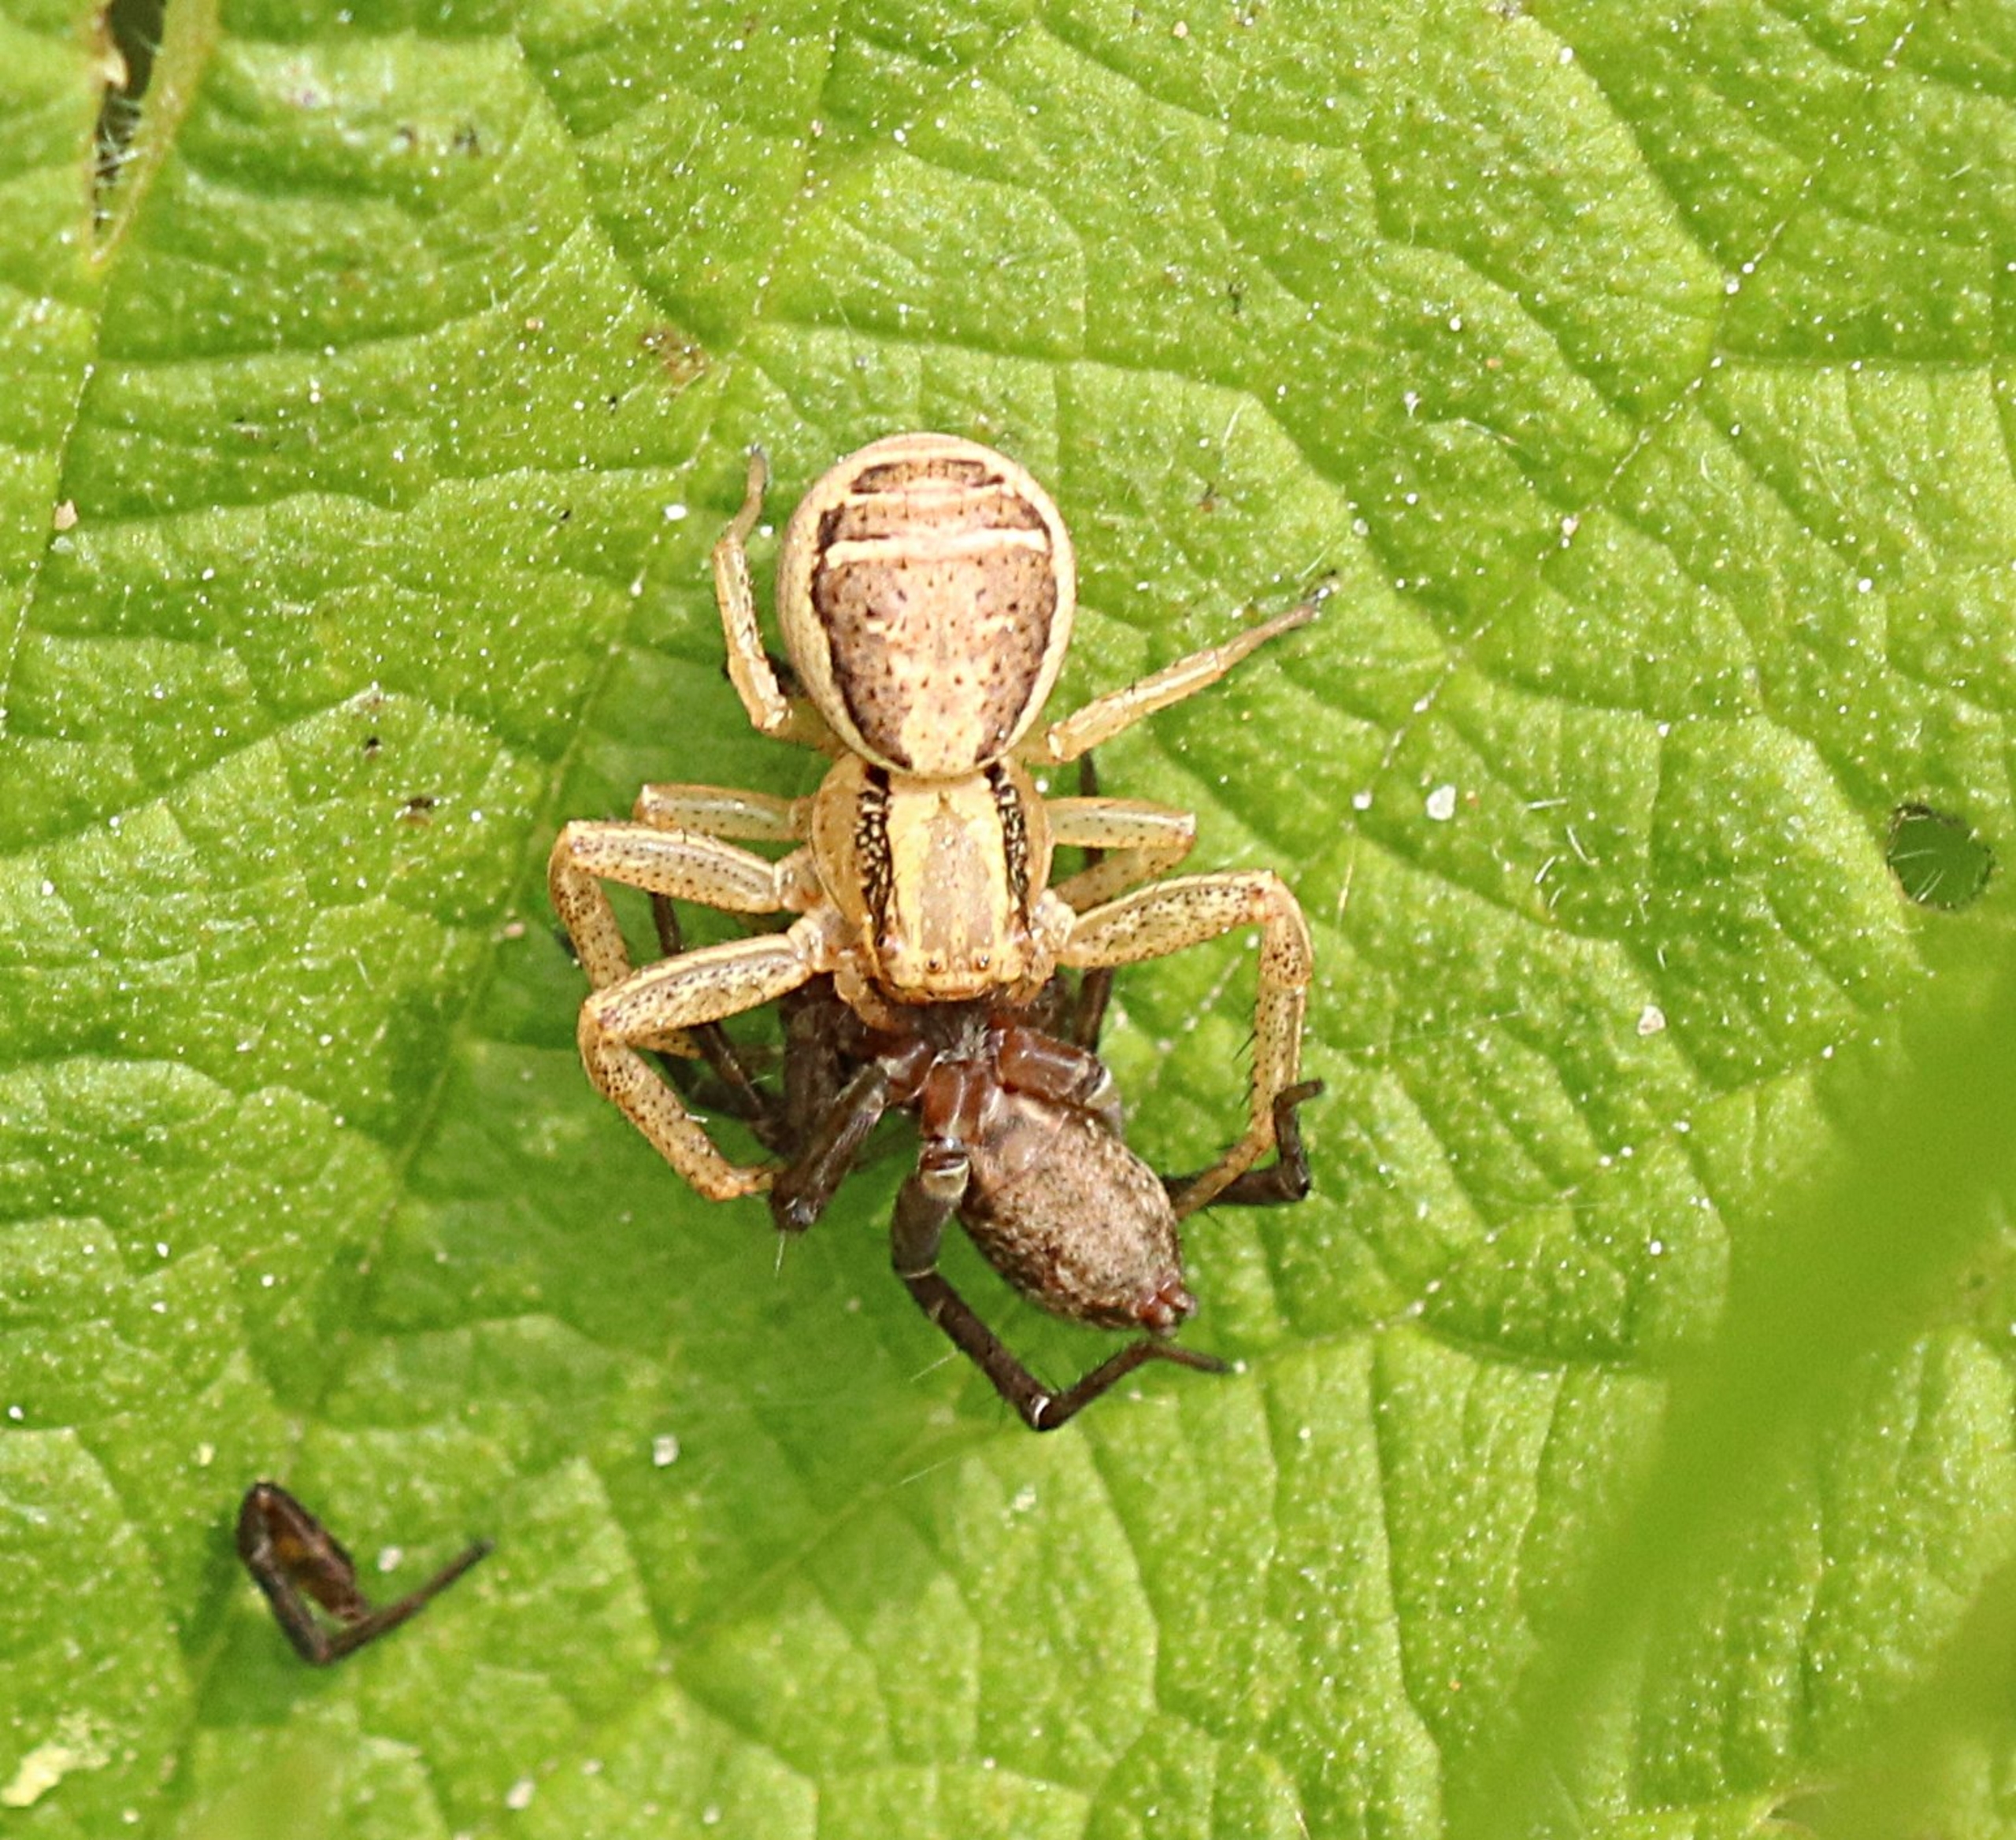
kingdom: Animalia
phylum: Arthropoda
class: Arachnida
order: Araneae
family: Thomisidae
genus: Xysticus
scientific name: Xysticus ulmi
